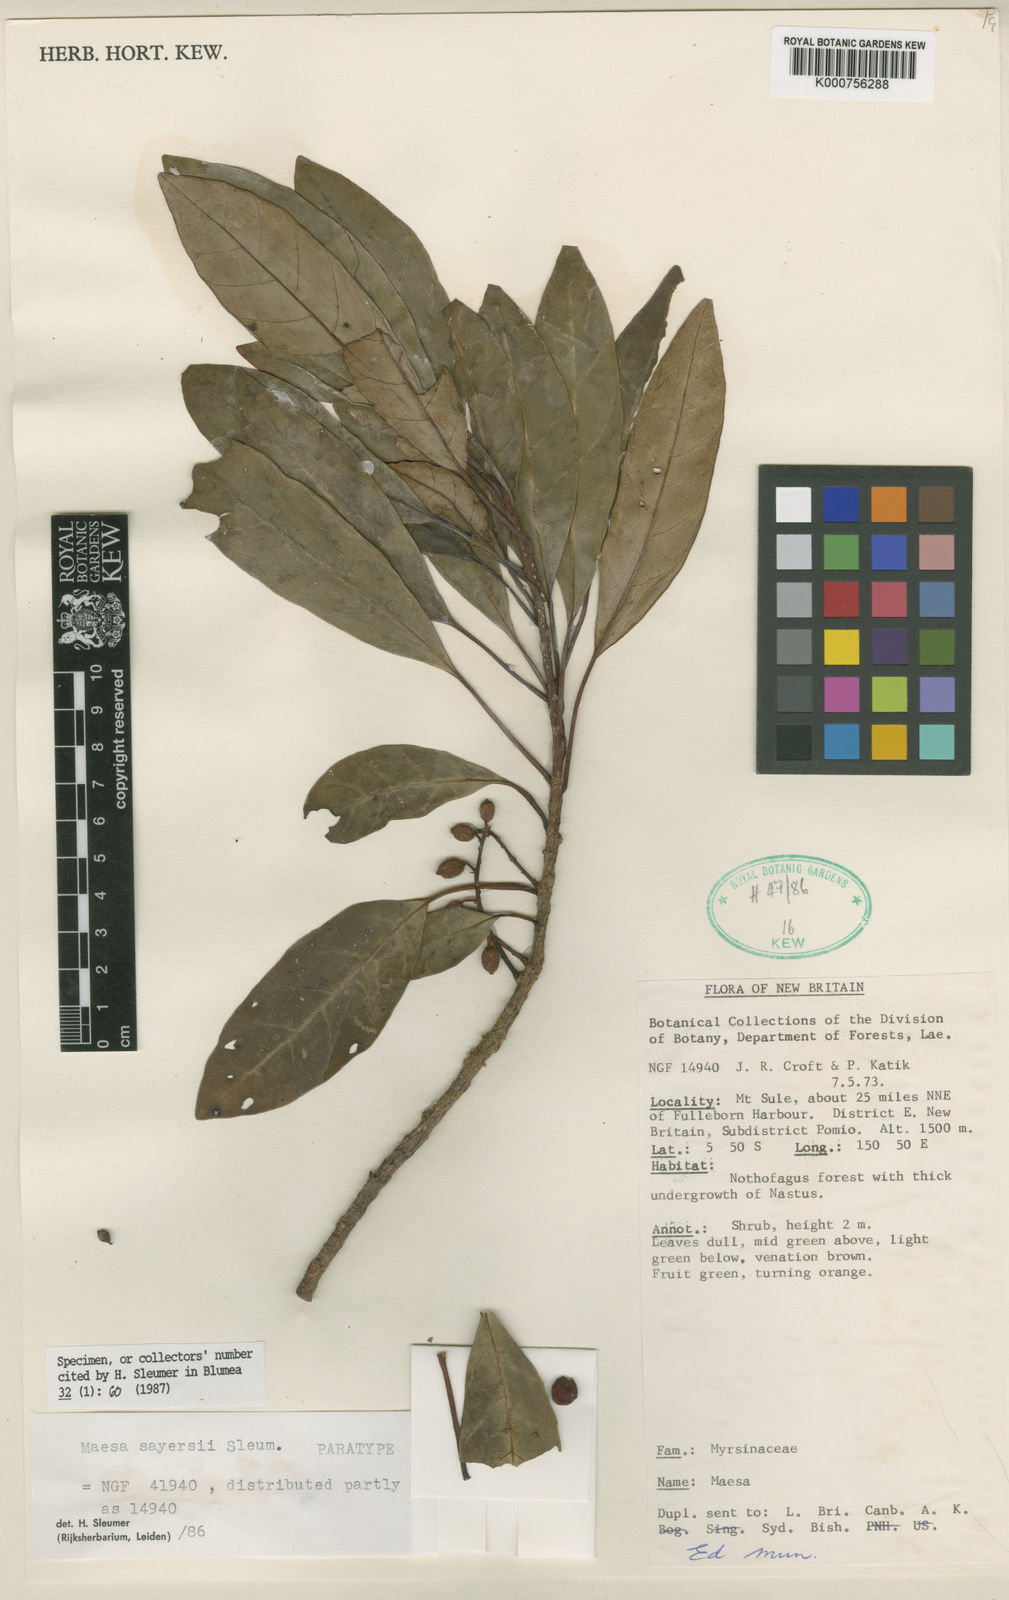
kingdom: Plantae
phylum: Tracheophyta
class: Magnoliopsida
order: Ericales
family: Primulaceae
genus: Maesa
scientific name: Maesa sayersii
